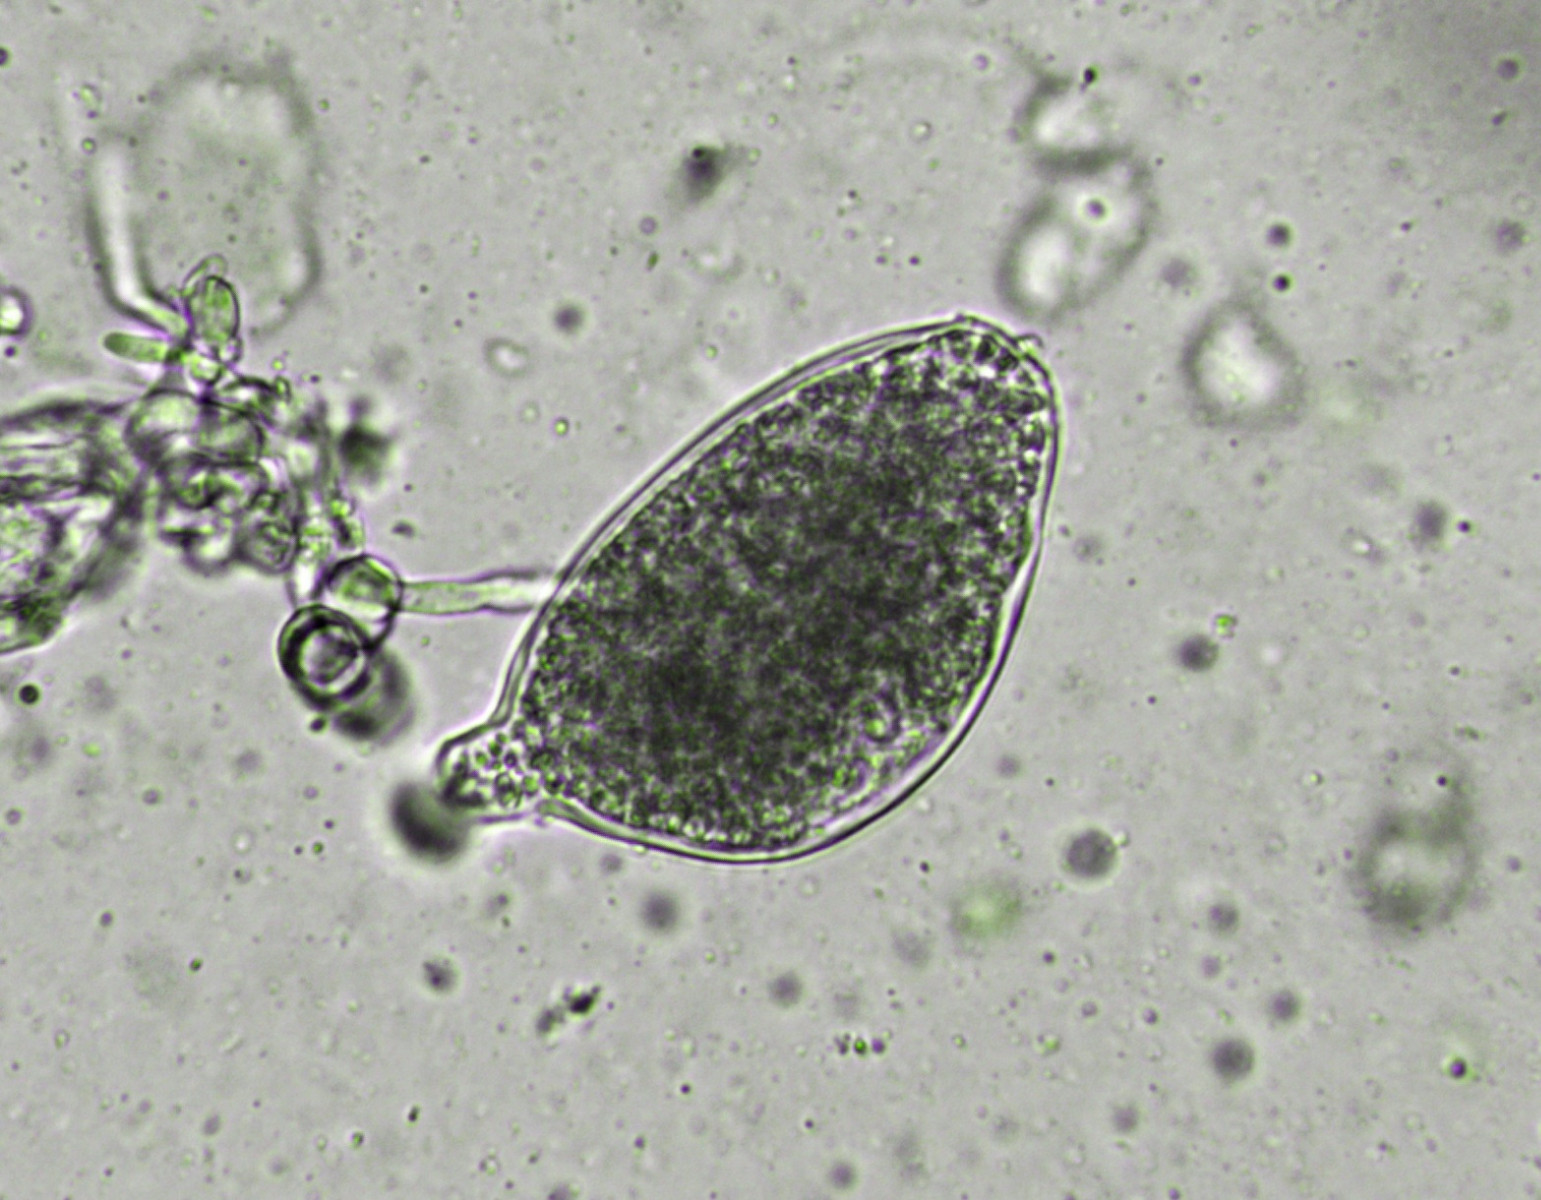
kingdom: Fungi
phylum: Ascomycota
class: Leotiomycetes
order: Helotiales
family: Erysiphaceae
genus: Golovinomyces
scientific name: Golovinomyces depressus
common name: Burdock mildew
